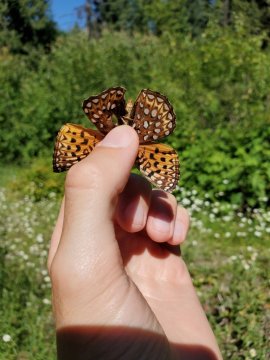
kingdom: Animalia
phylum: Arthropoda
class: Insecta
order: Lepidoptera
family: Nymphalidae
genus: Speyeria
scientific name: Speyeria atlantis
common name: Northwestern Fritillary
